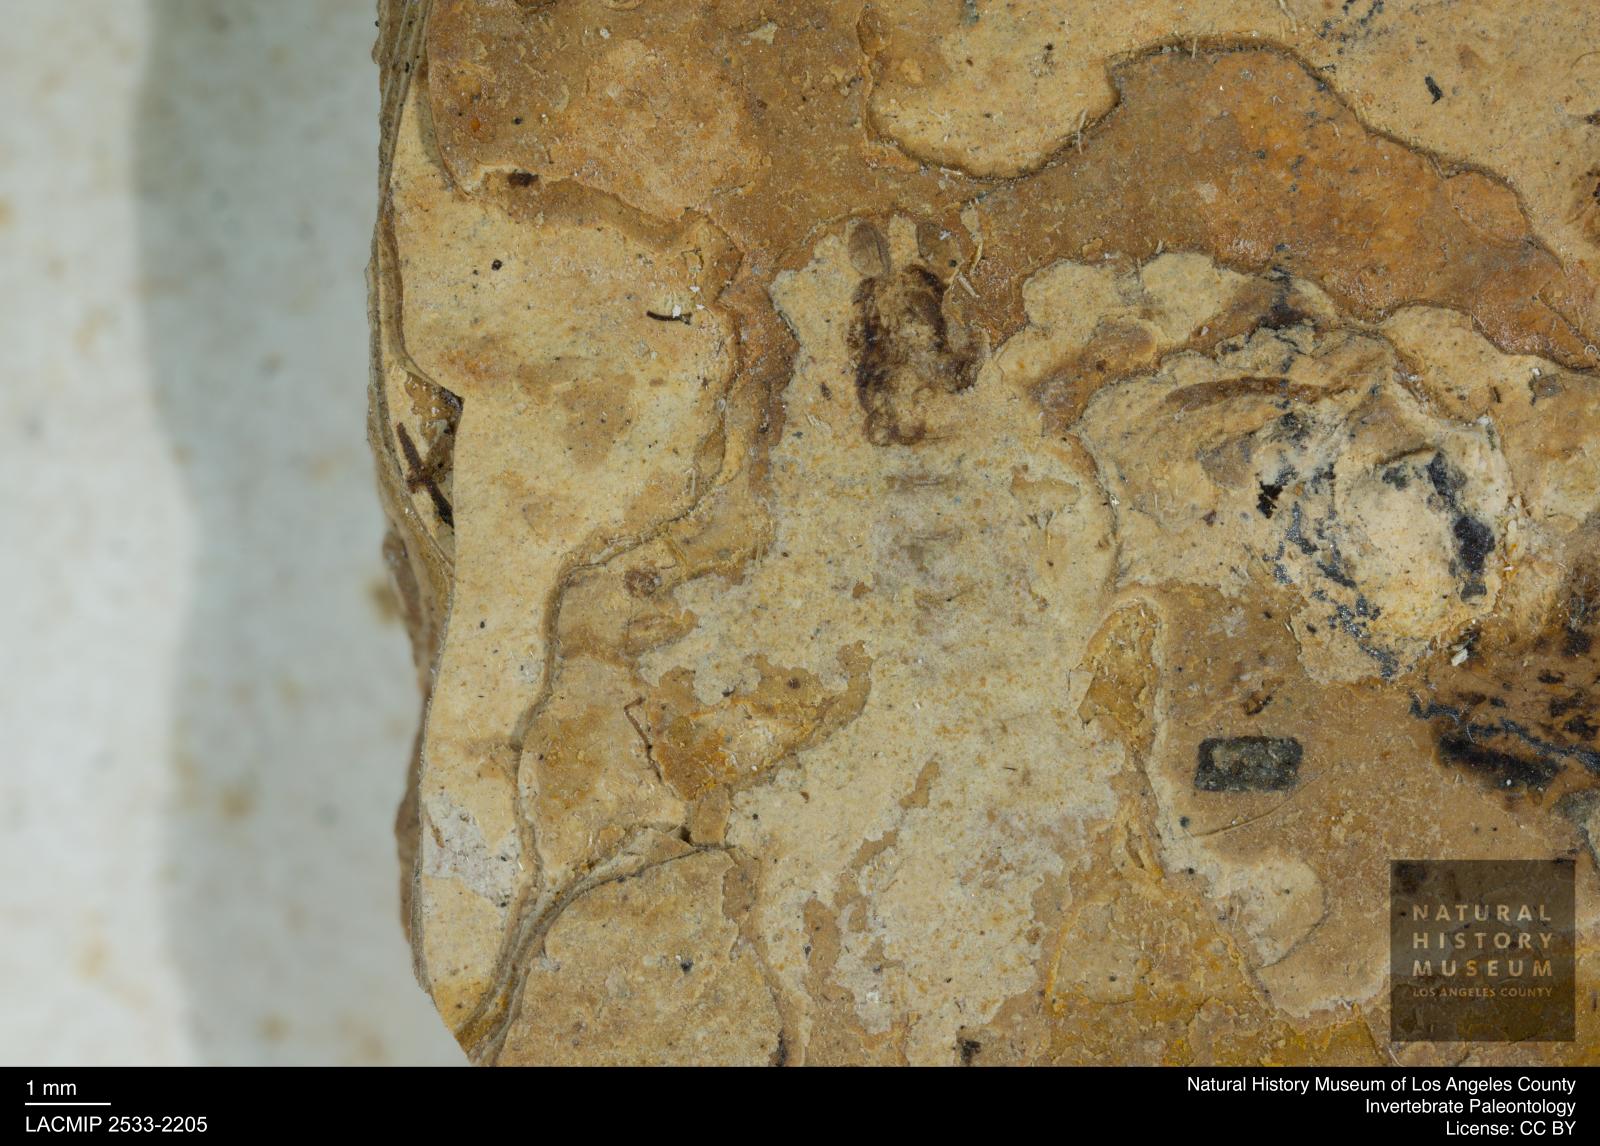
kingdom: Animalia
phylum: Arthropoda
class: Insecta
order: Diptera
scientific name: Diptera
